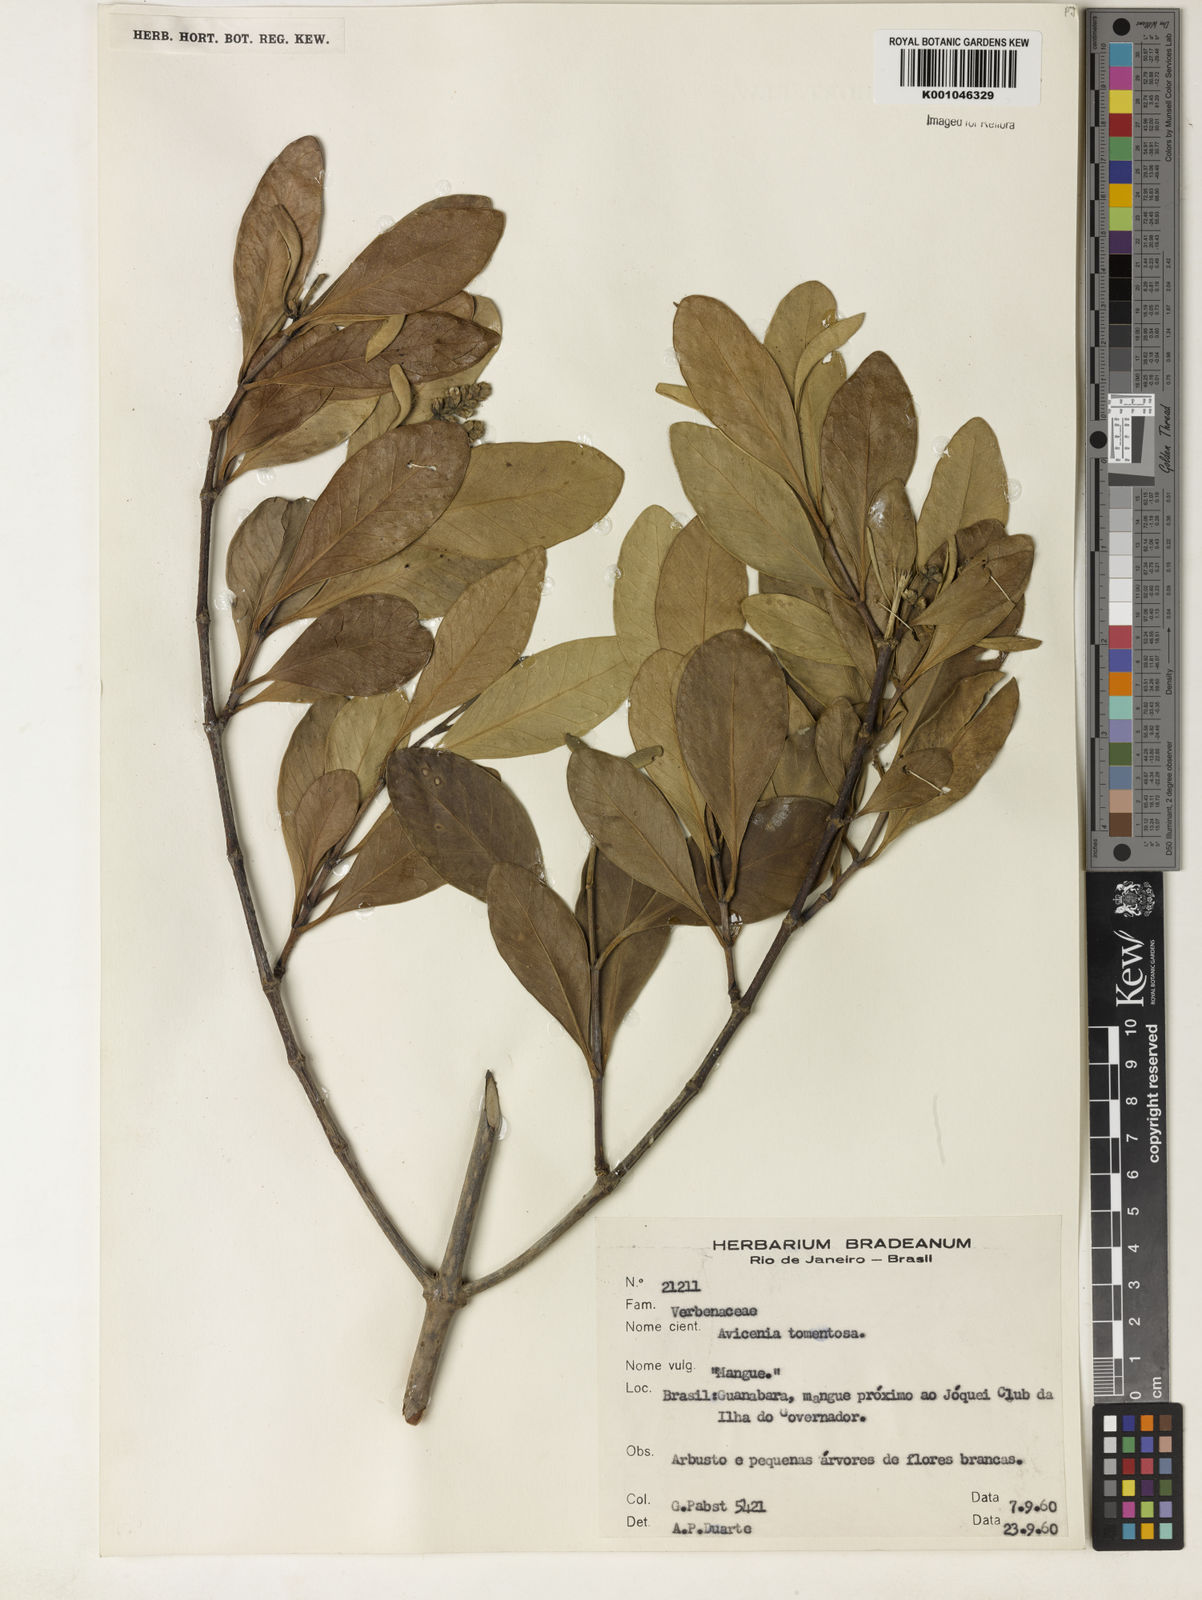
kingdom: Plantae
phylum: Tracheophyta
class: Magnoliopsida
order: Lamiales
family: Acanthaceae
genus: Avicennia
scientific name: Avicennia germinans
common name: Black mangrove
